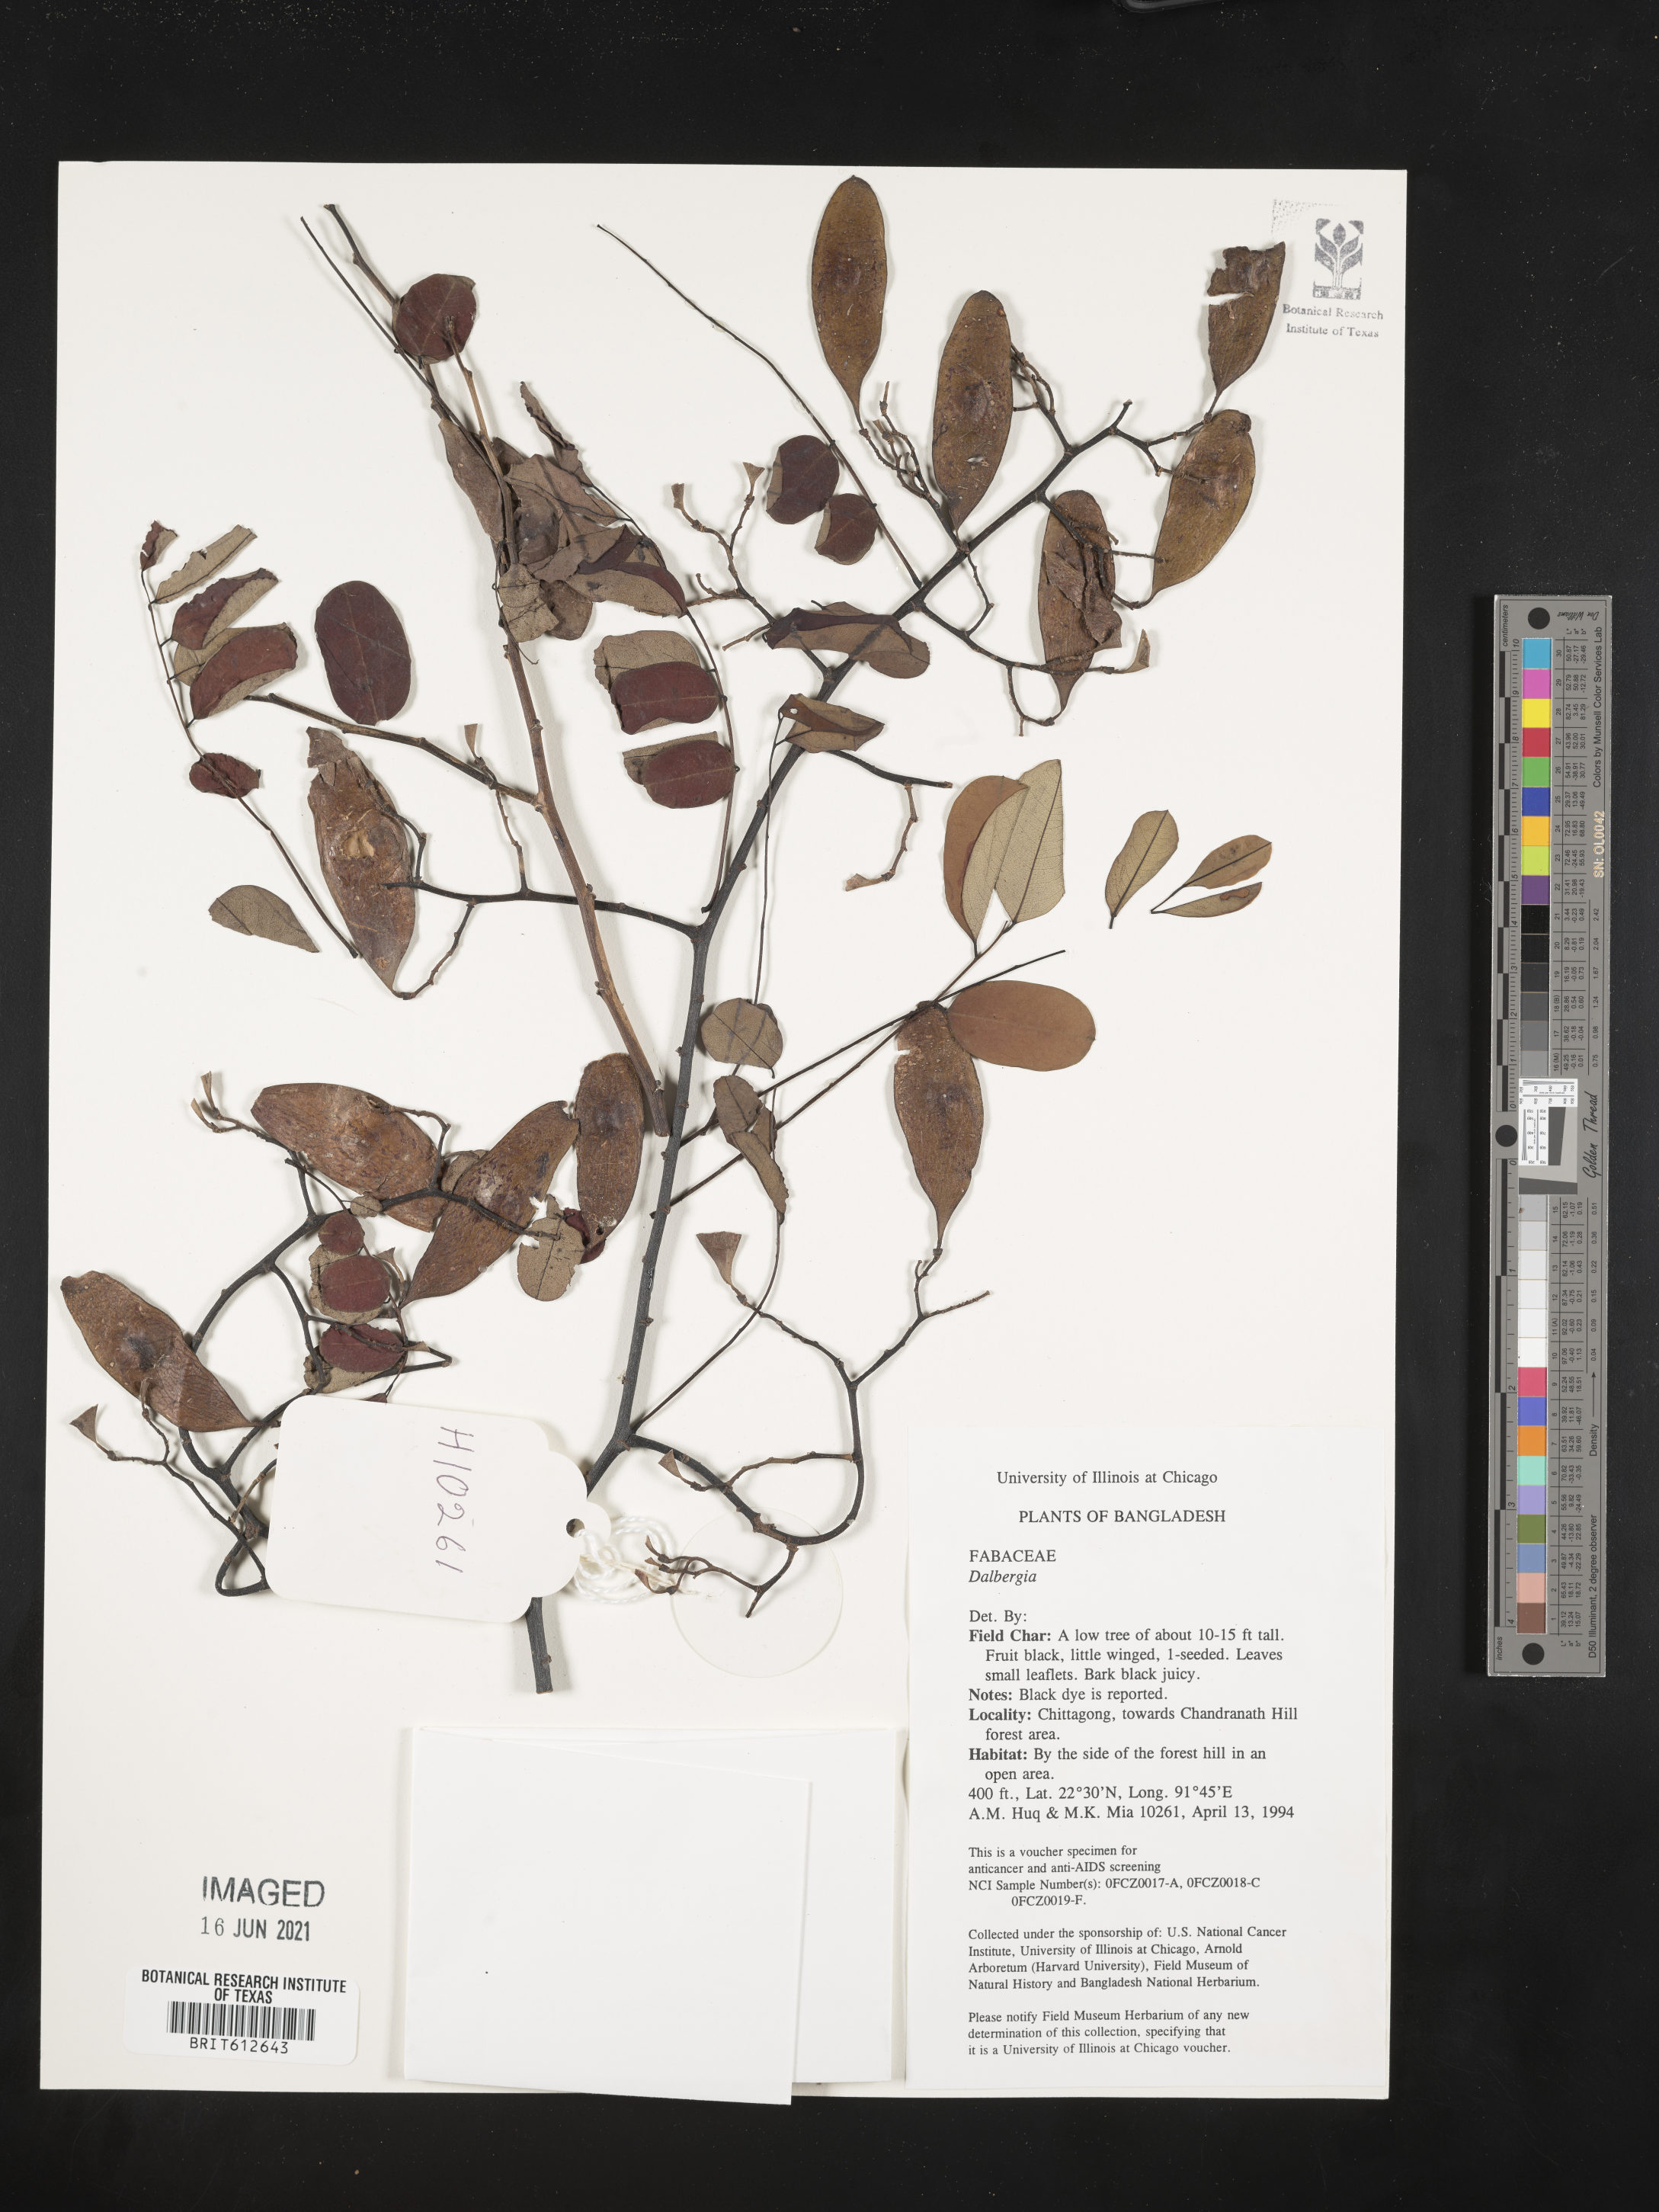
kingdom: Plantae
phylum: Tracheophyta
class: Magnoliopsida
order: Fabales
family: Fabaceae
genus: Dalbergia
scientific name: Dalbergia
